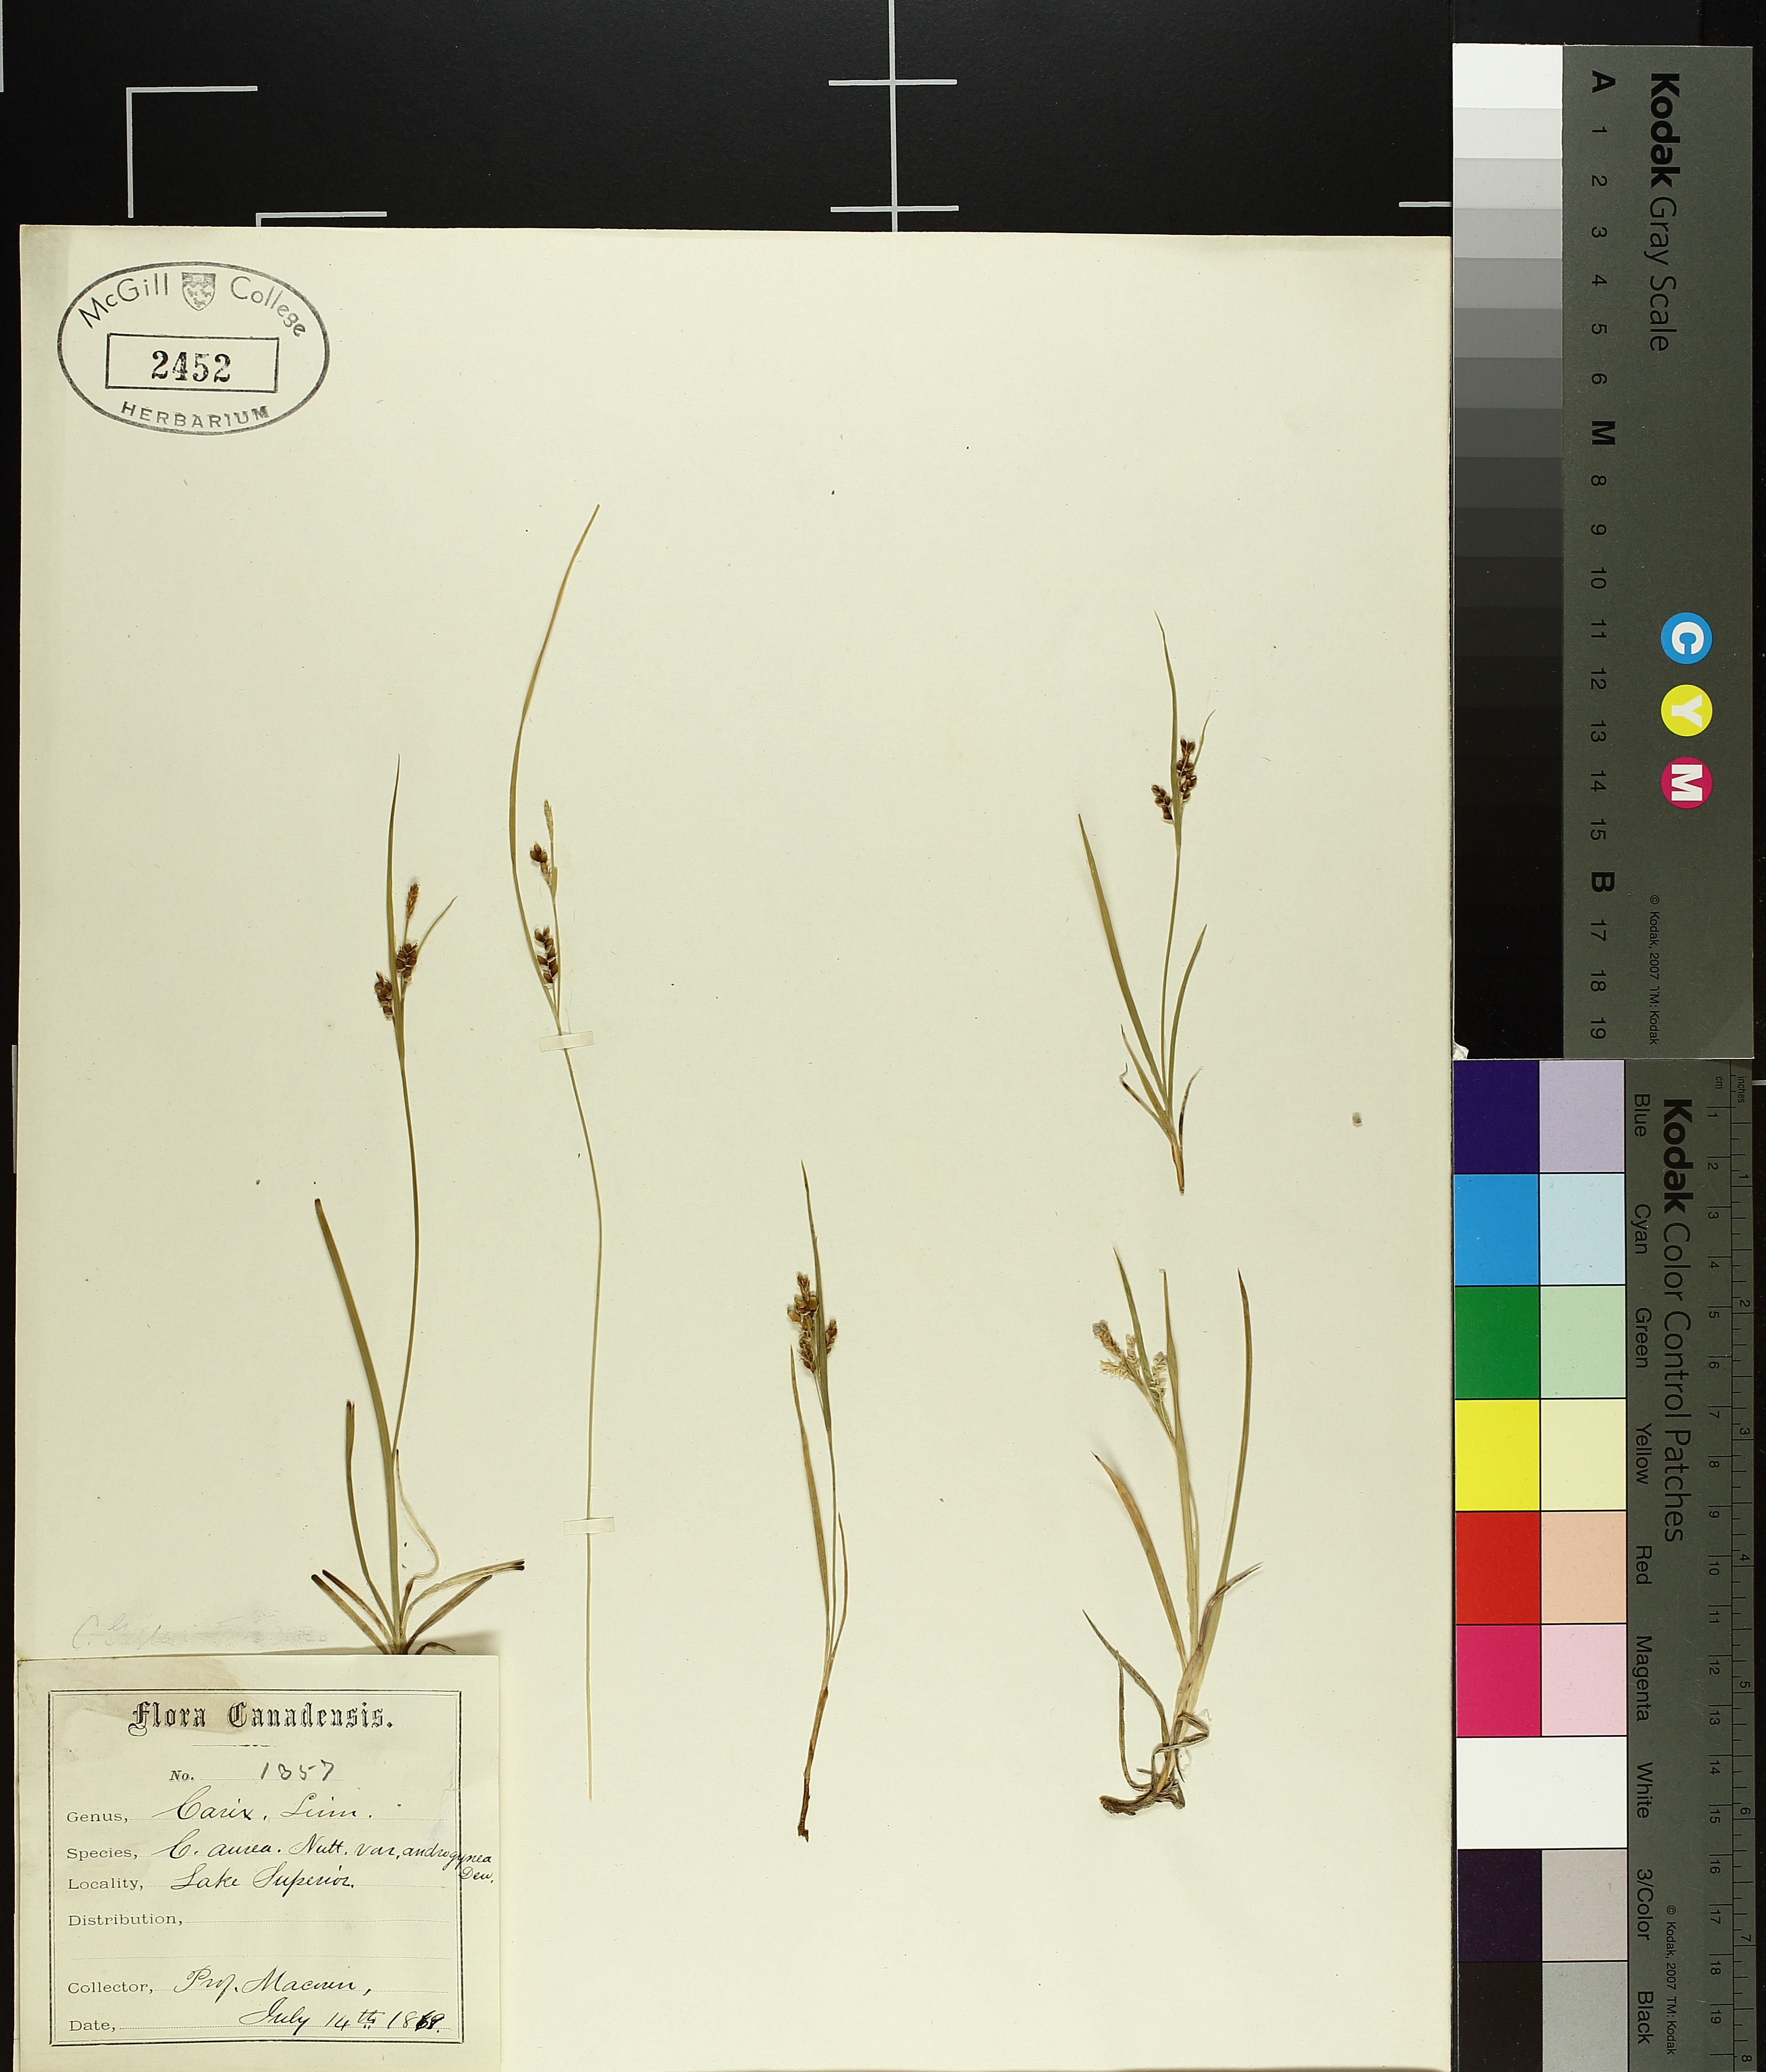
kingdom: Plantae
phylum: Tracheophyta
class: Liliopsida
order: Poales
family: Cyperaceae
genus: Carex
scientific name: Carex garberi
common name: Elk sedge
